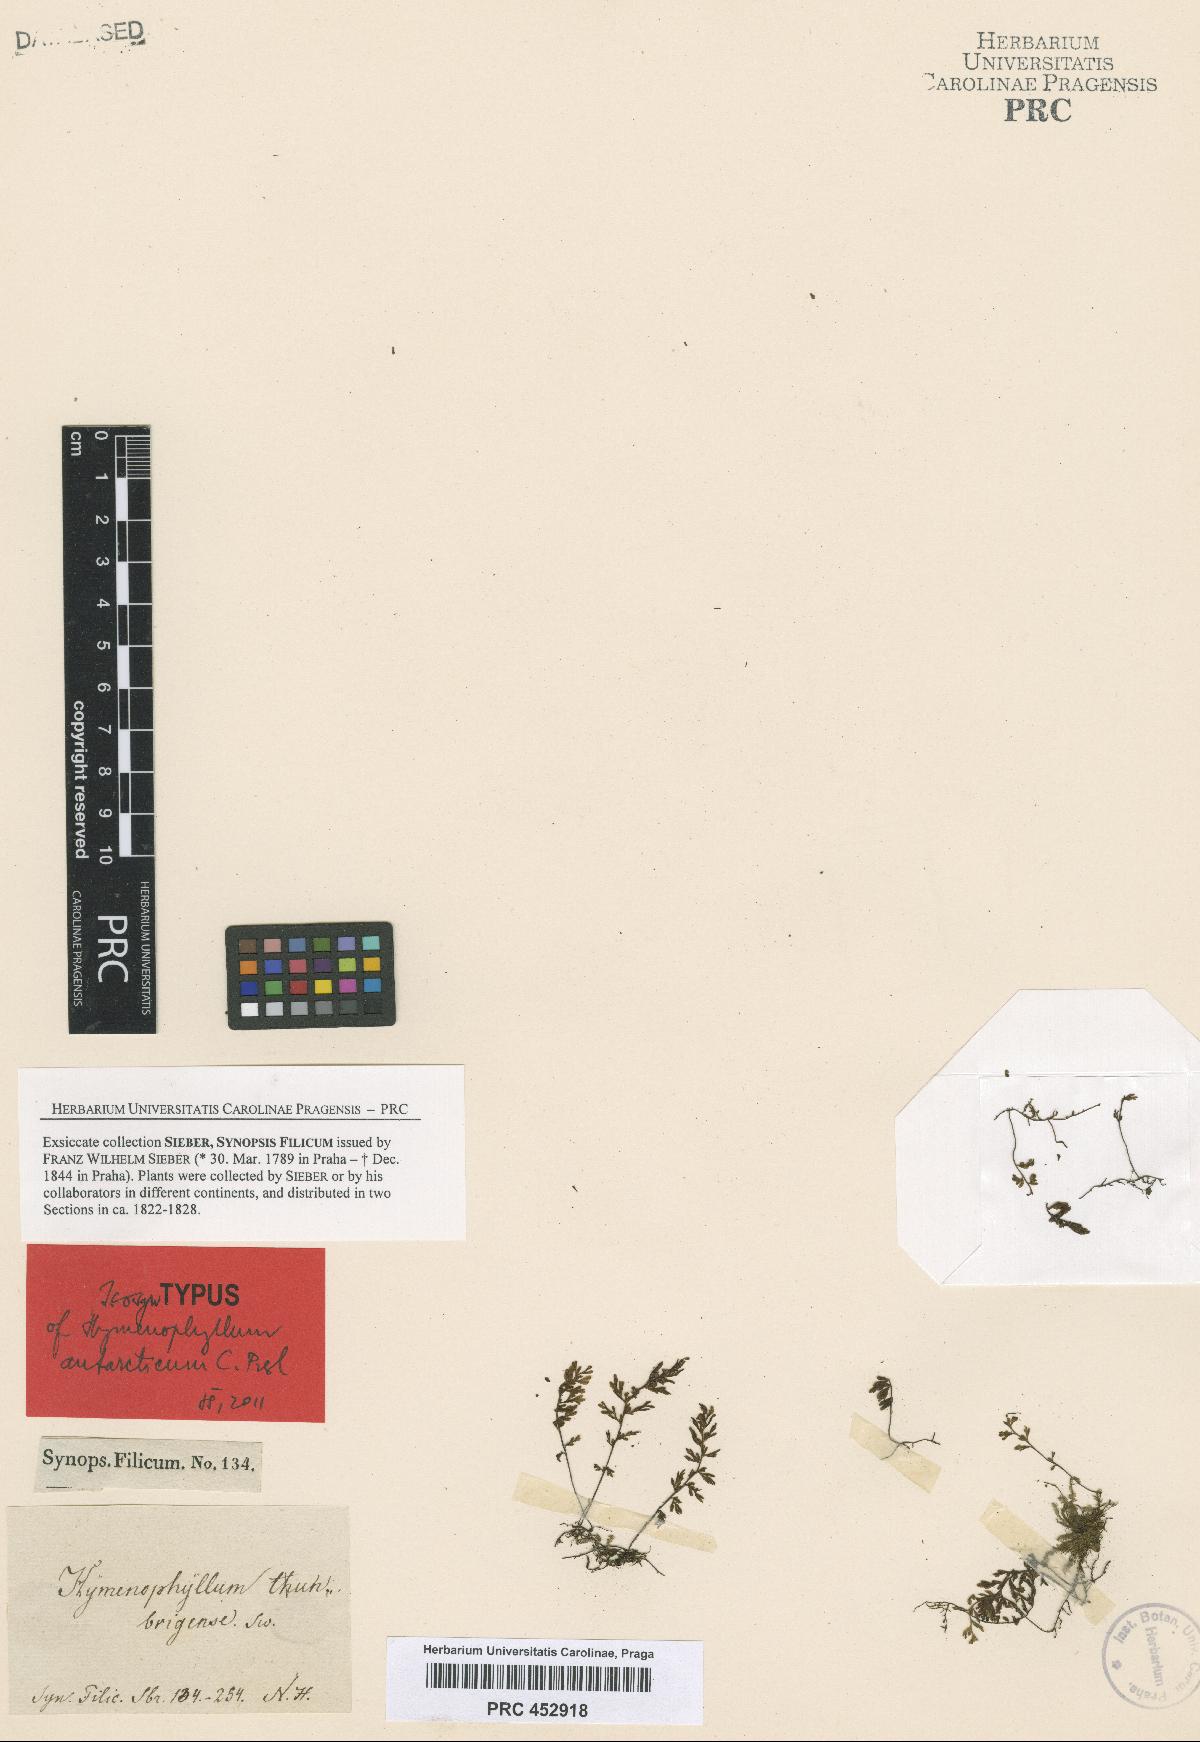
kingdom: Plantae
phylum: Tracheophyta
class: Polypodiopsida
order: Hymenophyllales
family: Hymenophyllaceae
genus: Hymenophyllum
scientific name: Hymenophyllum cupressiforme
